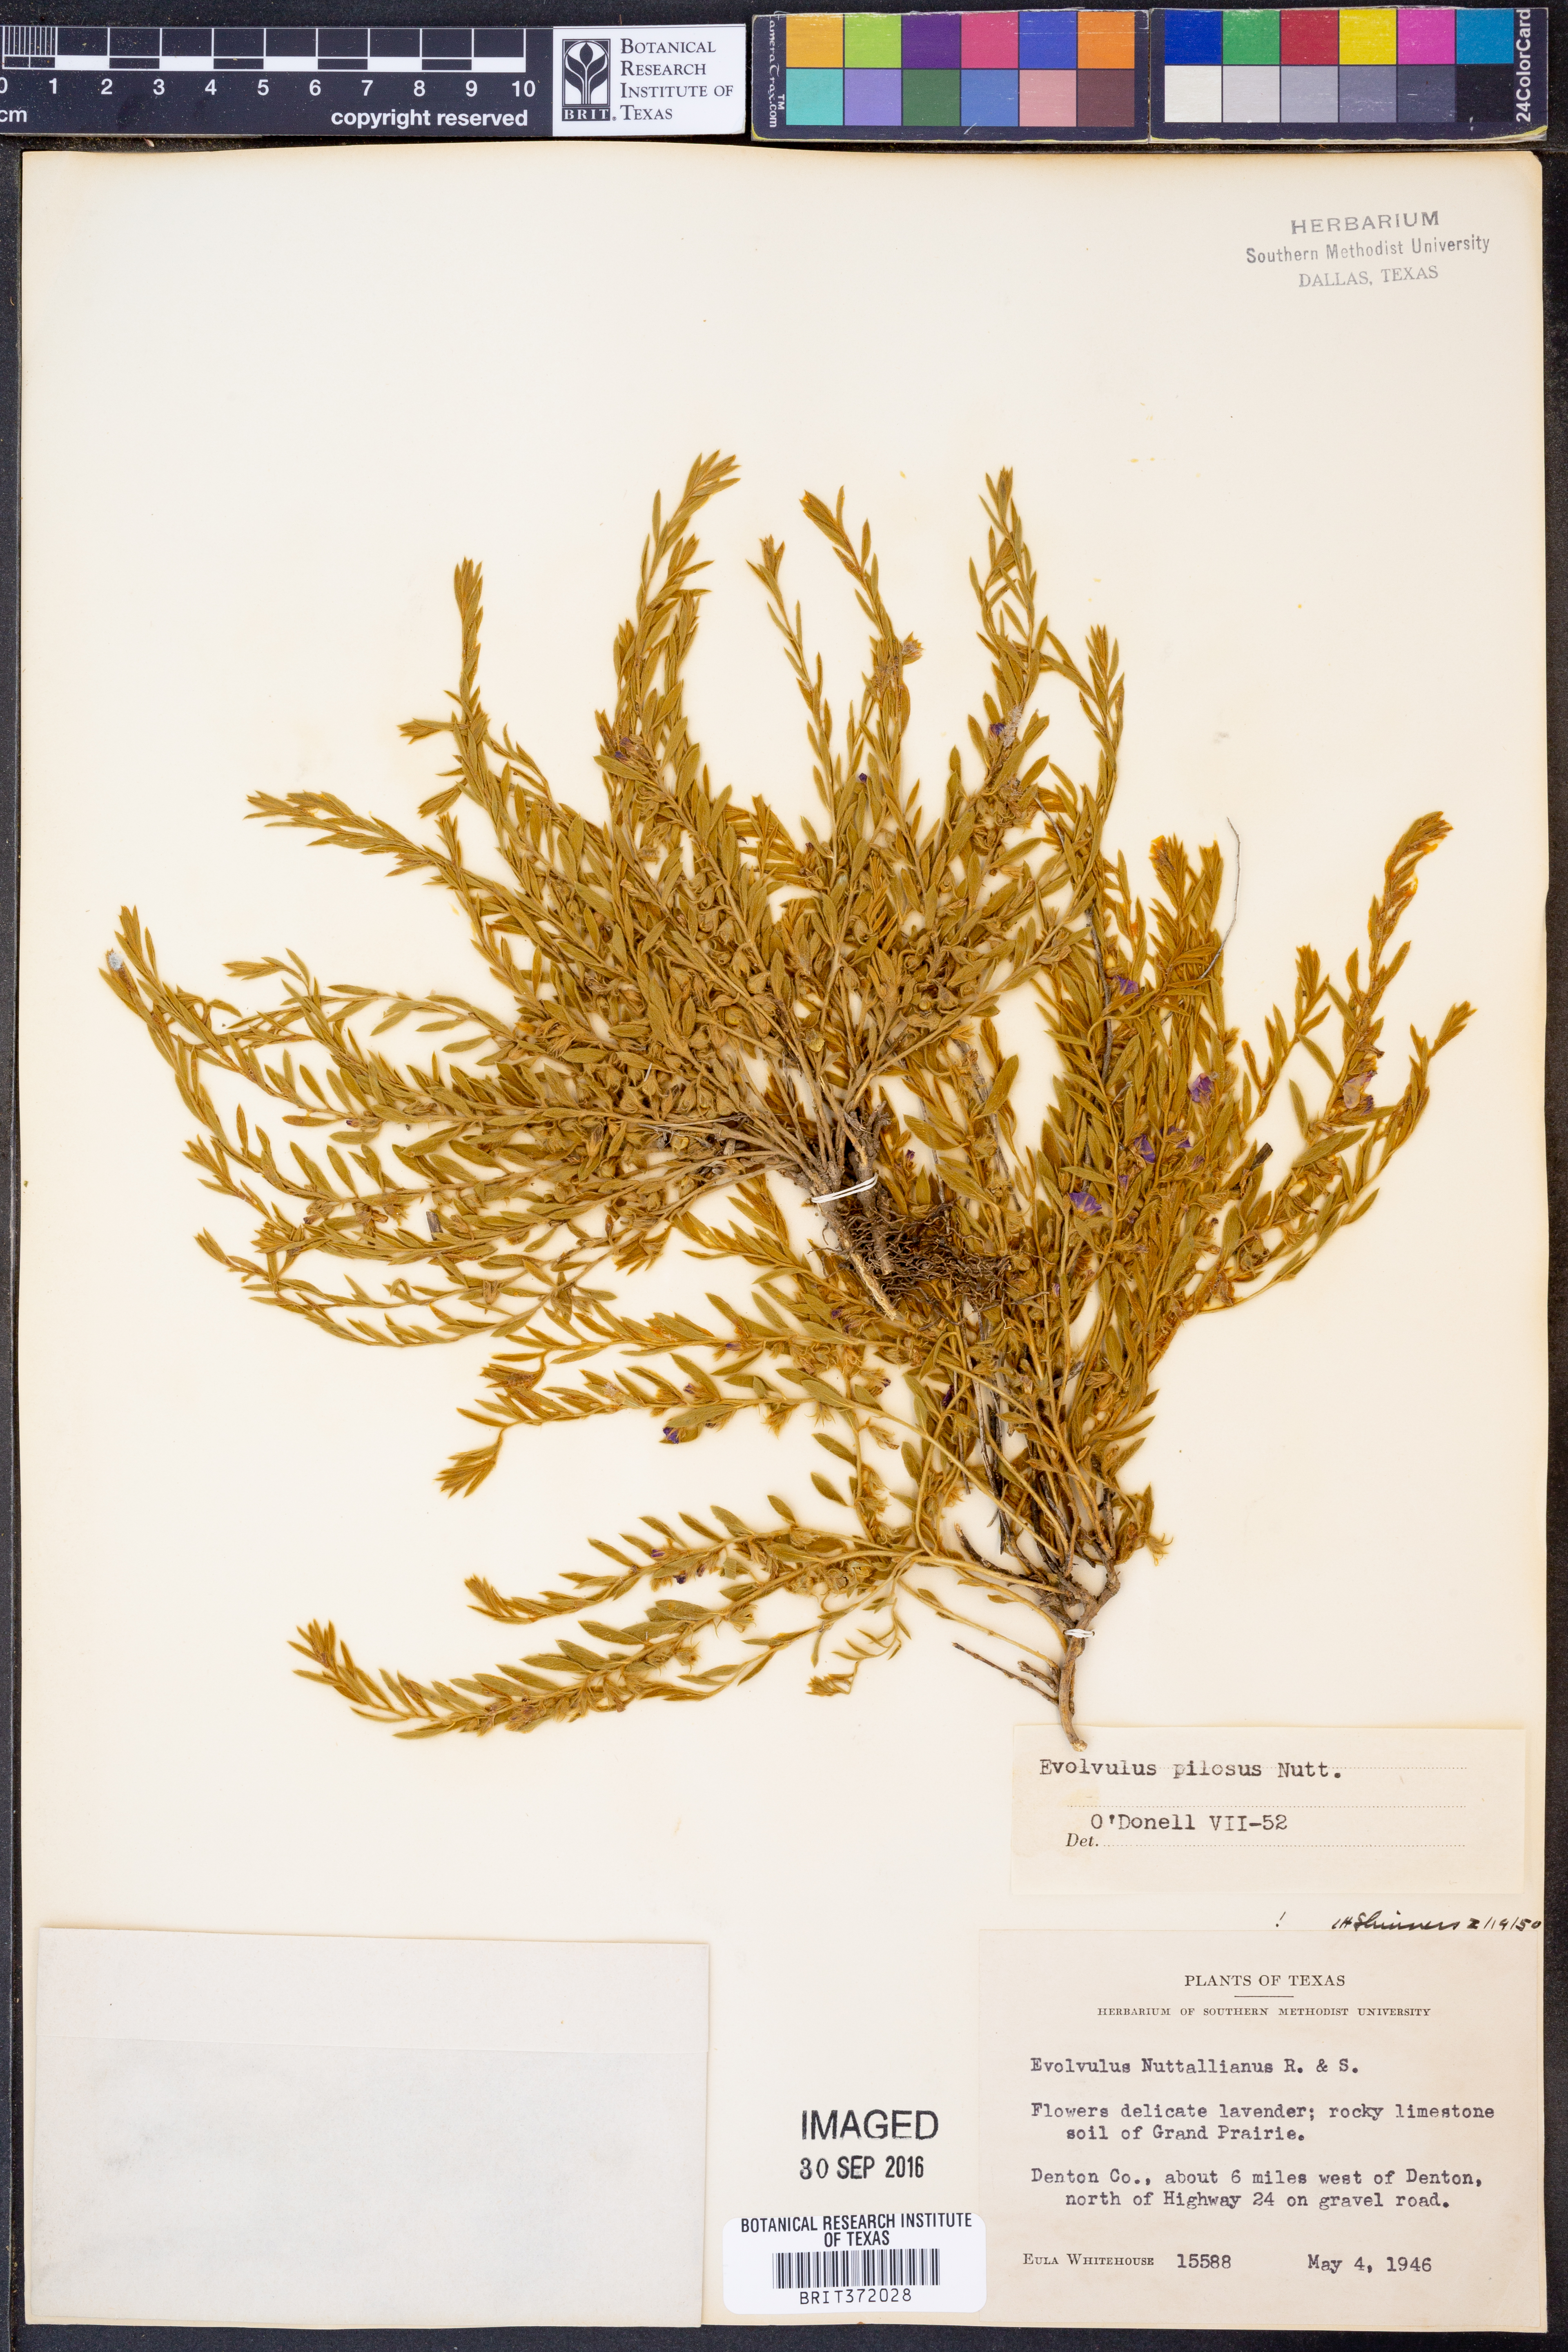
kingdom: Plantae
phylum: Tracheophyta
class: Magnoliopsida
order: Solanales
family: Convolvulaceae
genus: Evolvulus
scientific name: Evolvulus nuttallianus
